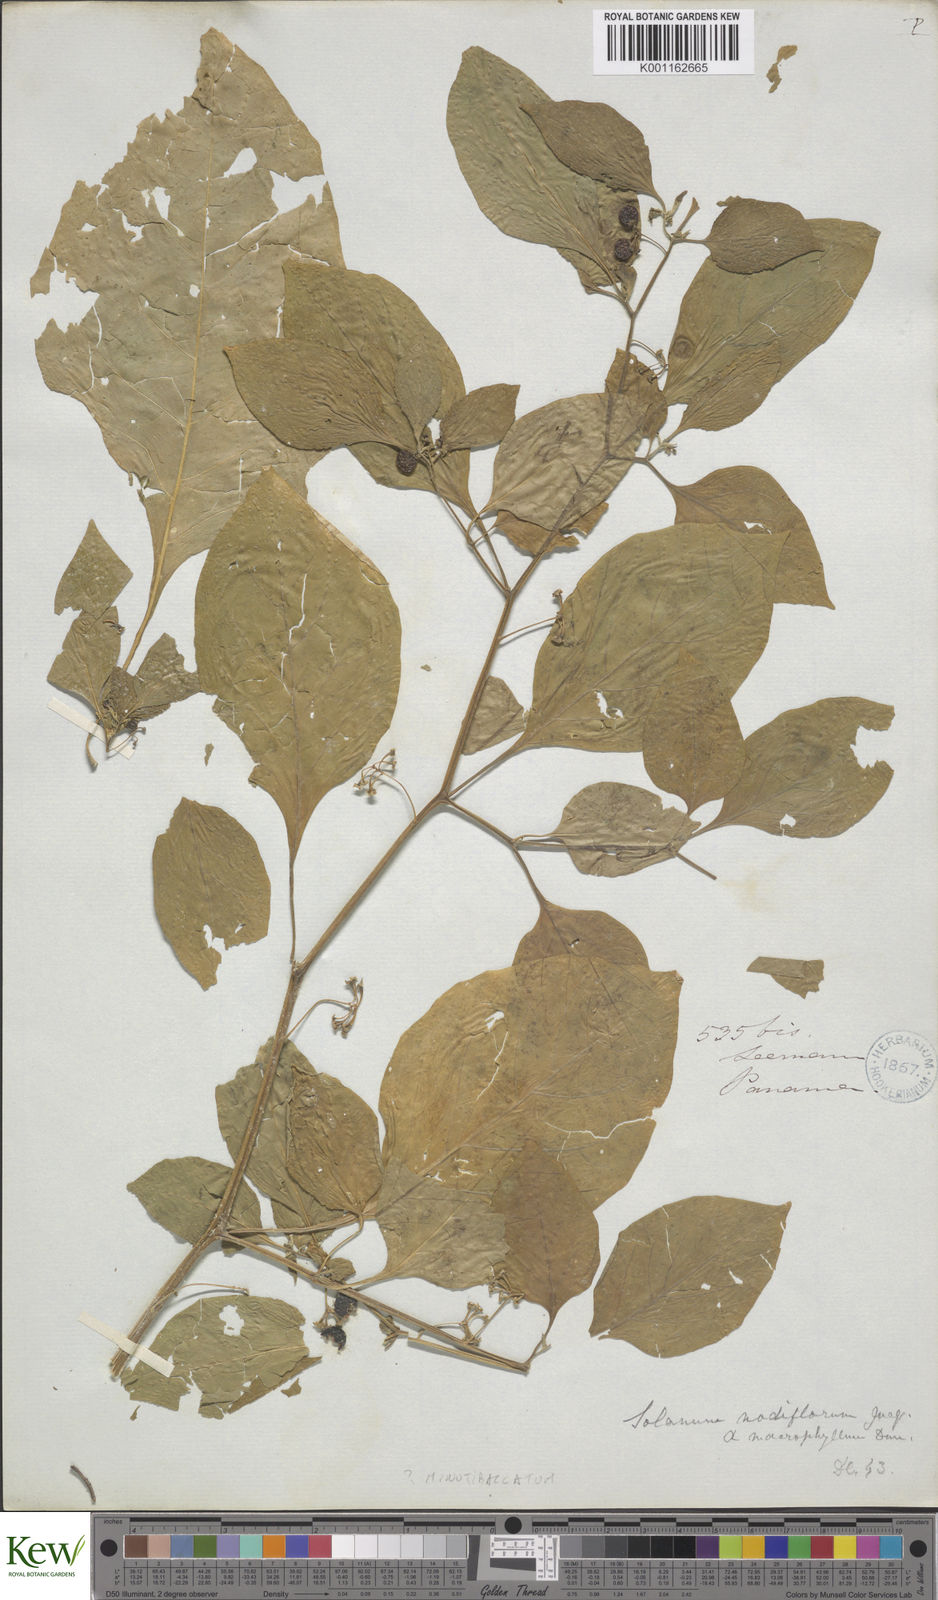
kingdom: Plantae
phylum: Tracheophyta
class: Magnoliopsida
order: Solanales
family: Solanaceae
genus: Solanum
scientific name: Solanum americanum
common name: American black nightshade
